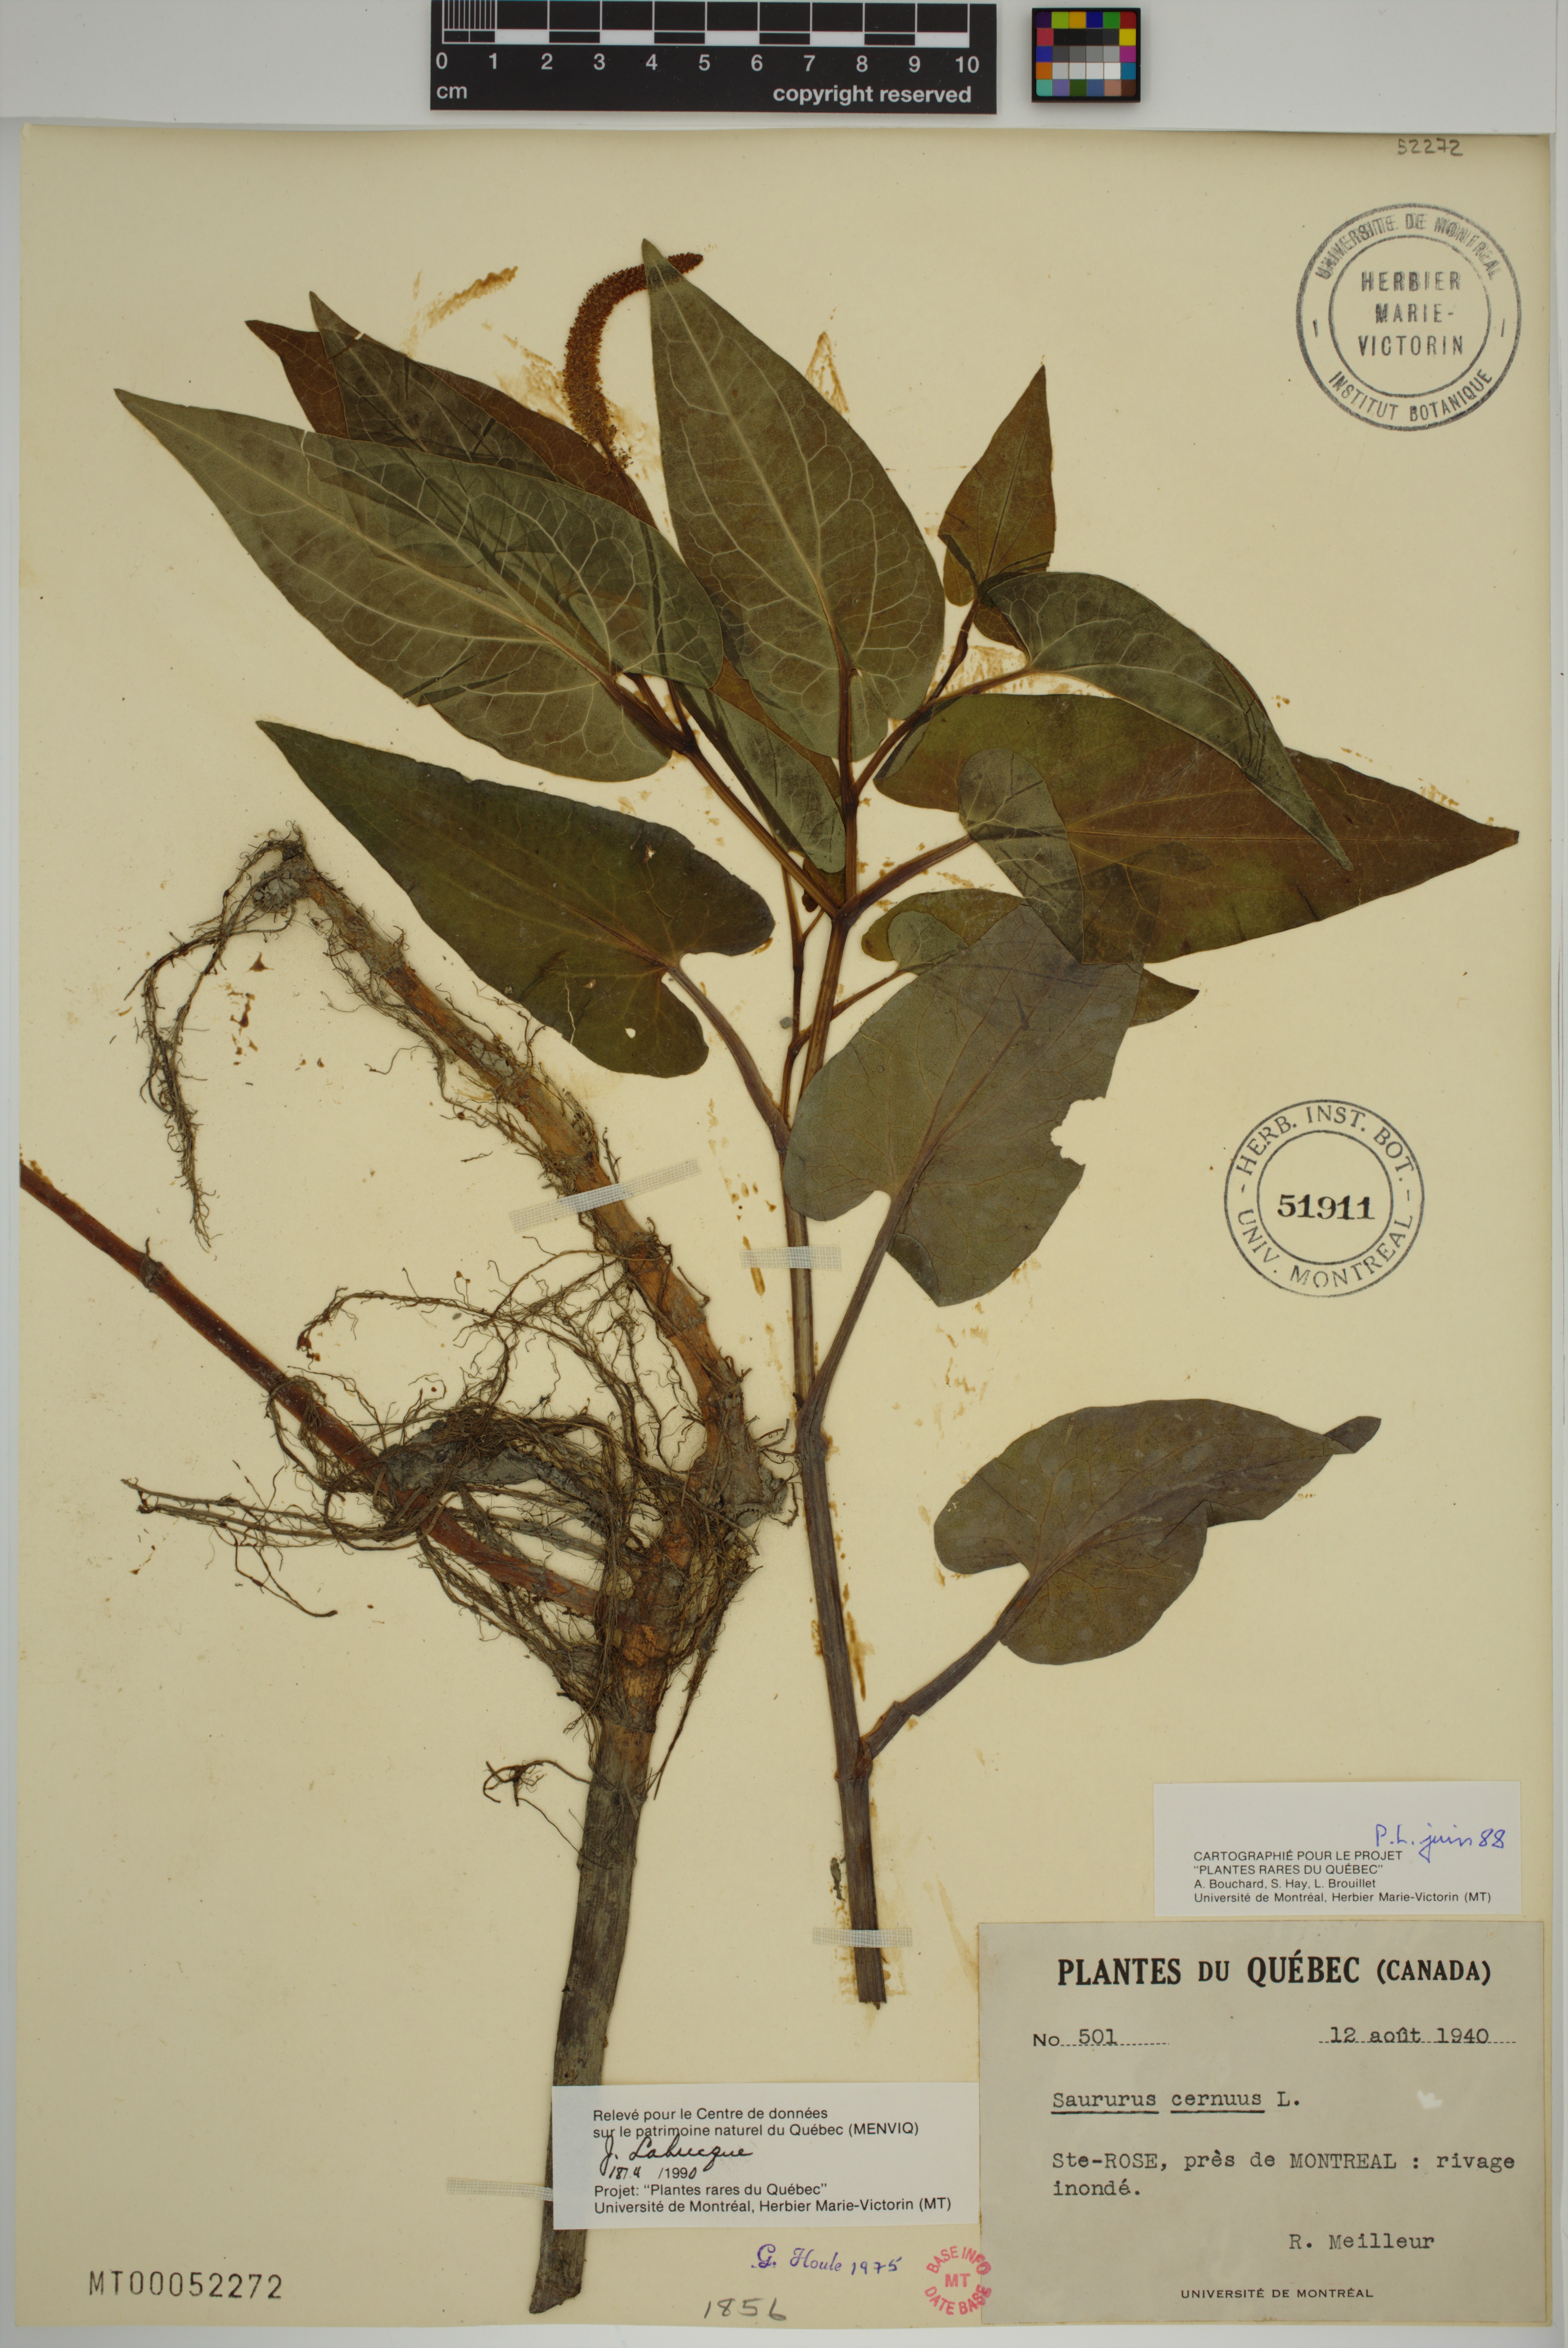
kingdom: Plantae
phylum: Tracheophyta
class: Magnoliopsida
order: Piperales
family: Saururaceae
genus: Saururus
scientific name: Saururus cernuus
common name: Lizard's-tail
